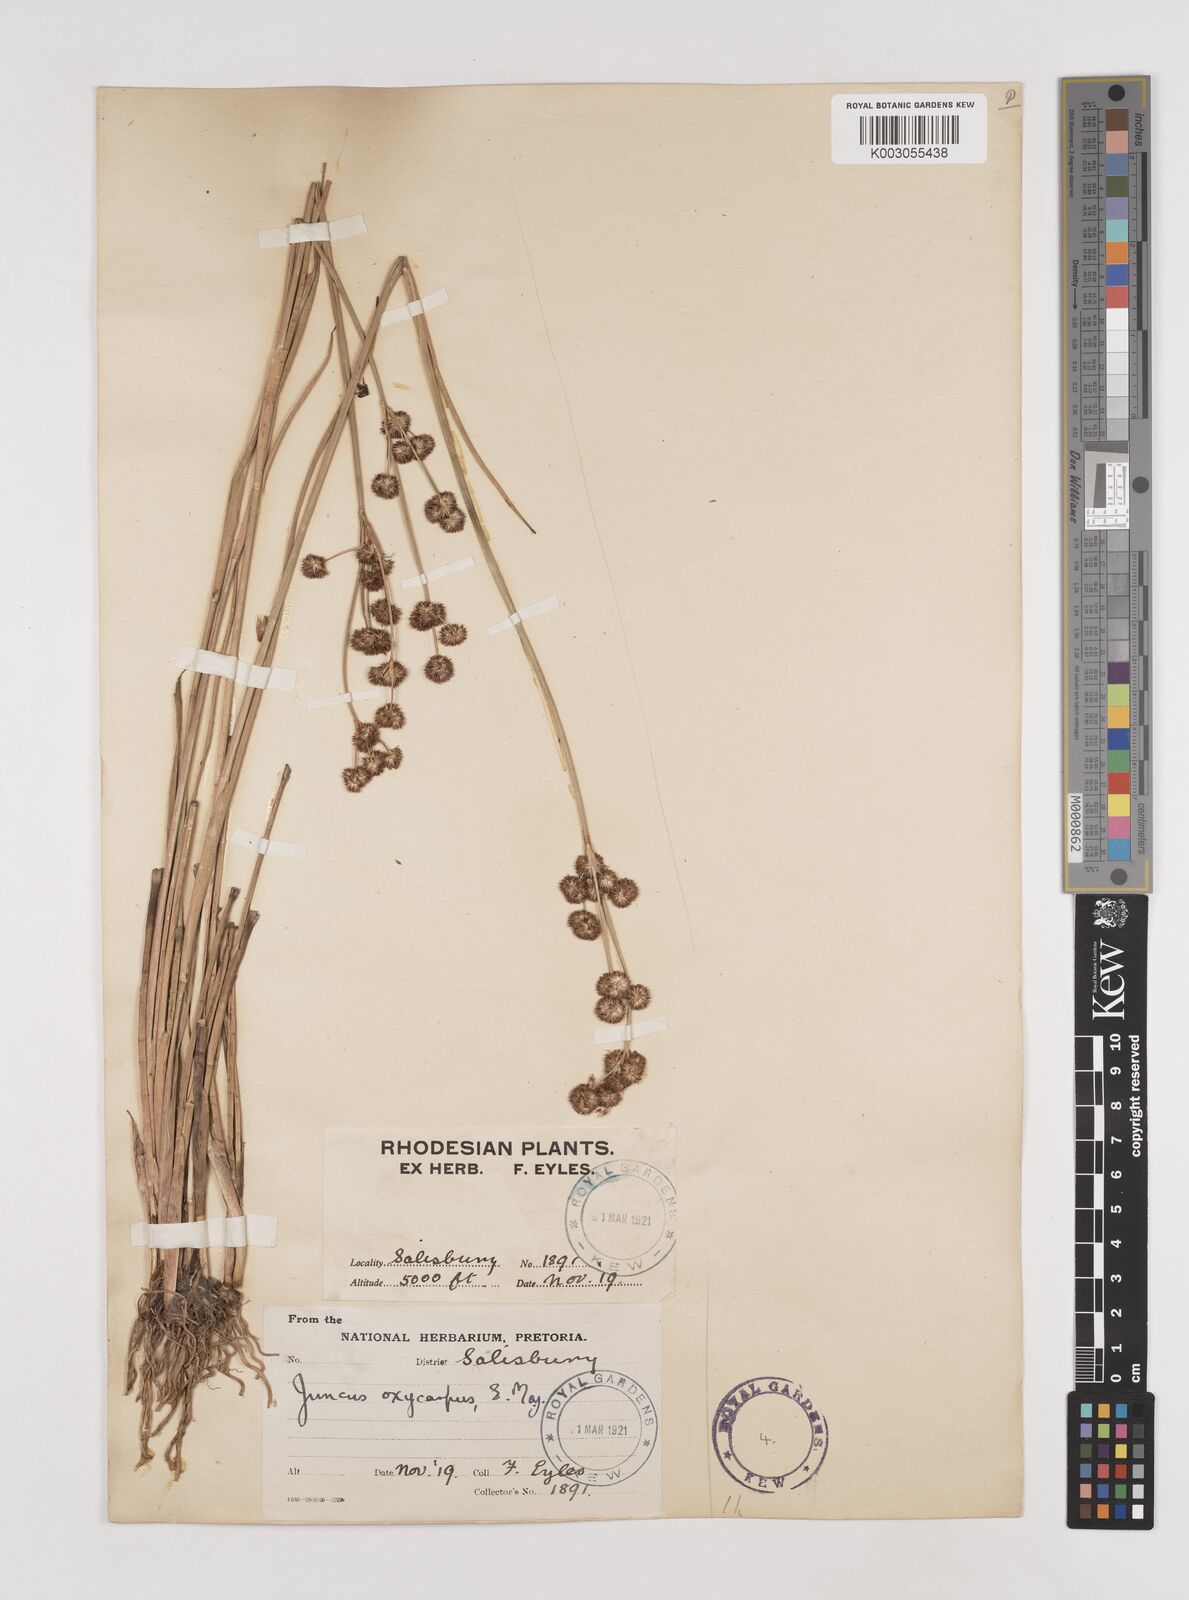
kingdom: Plantae
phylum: Tracheophyta
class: Liliopsida
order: Poales
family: Juncaceae
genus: Juncus
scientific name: Juncus oxycarpus
